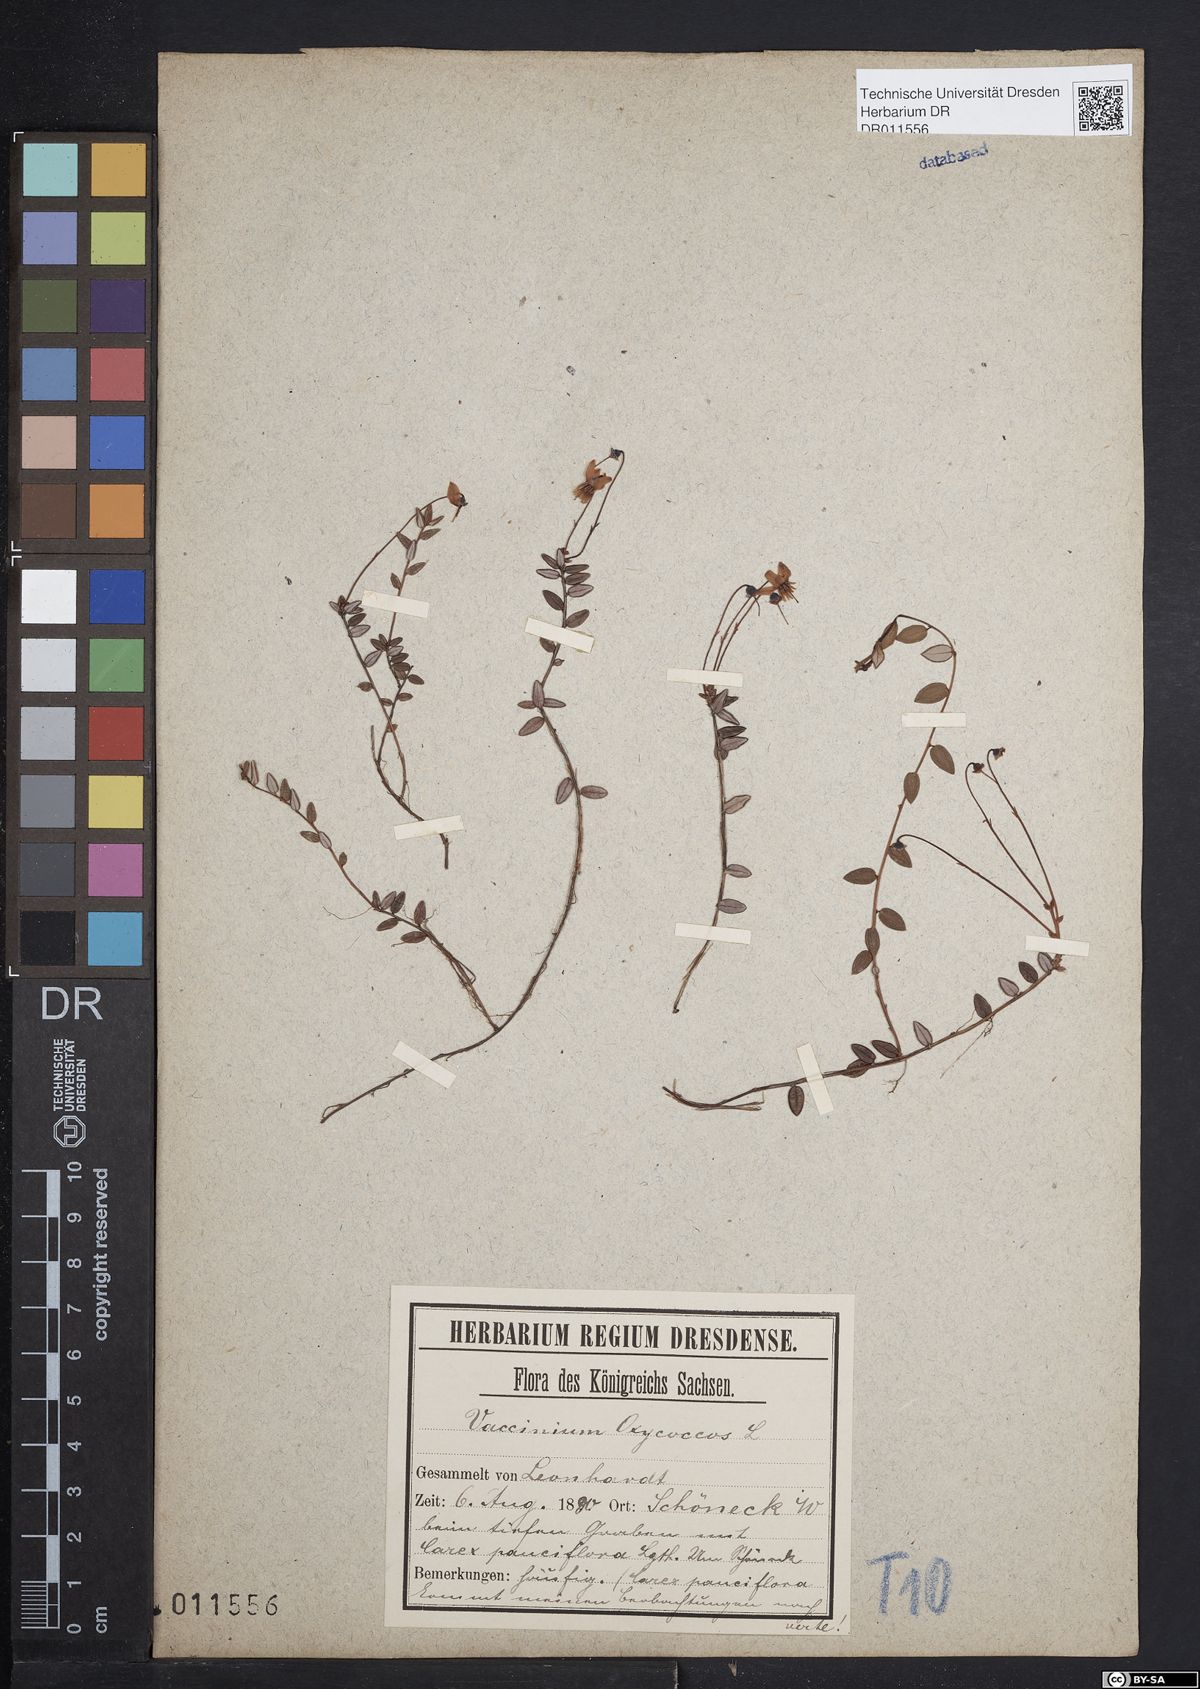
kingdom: Plantae
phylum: Tracheophyta
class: Magnoliopsida
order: Ericales
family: Ericaceae
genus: Vaccinium
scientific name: Vaccinium oxycoccos
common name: Cranberry
